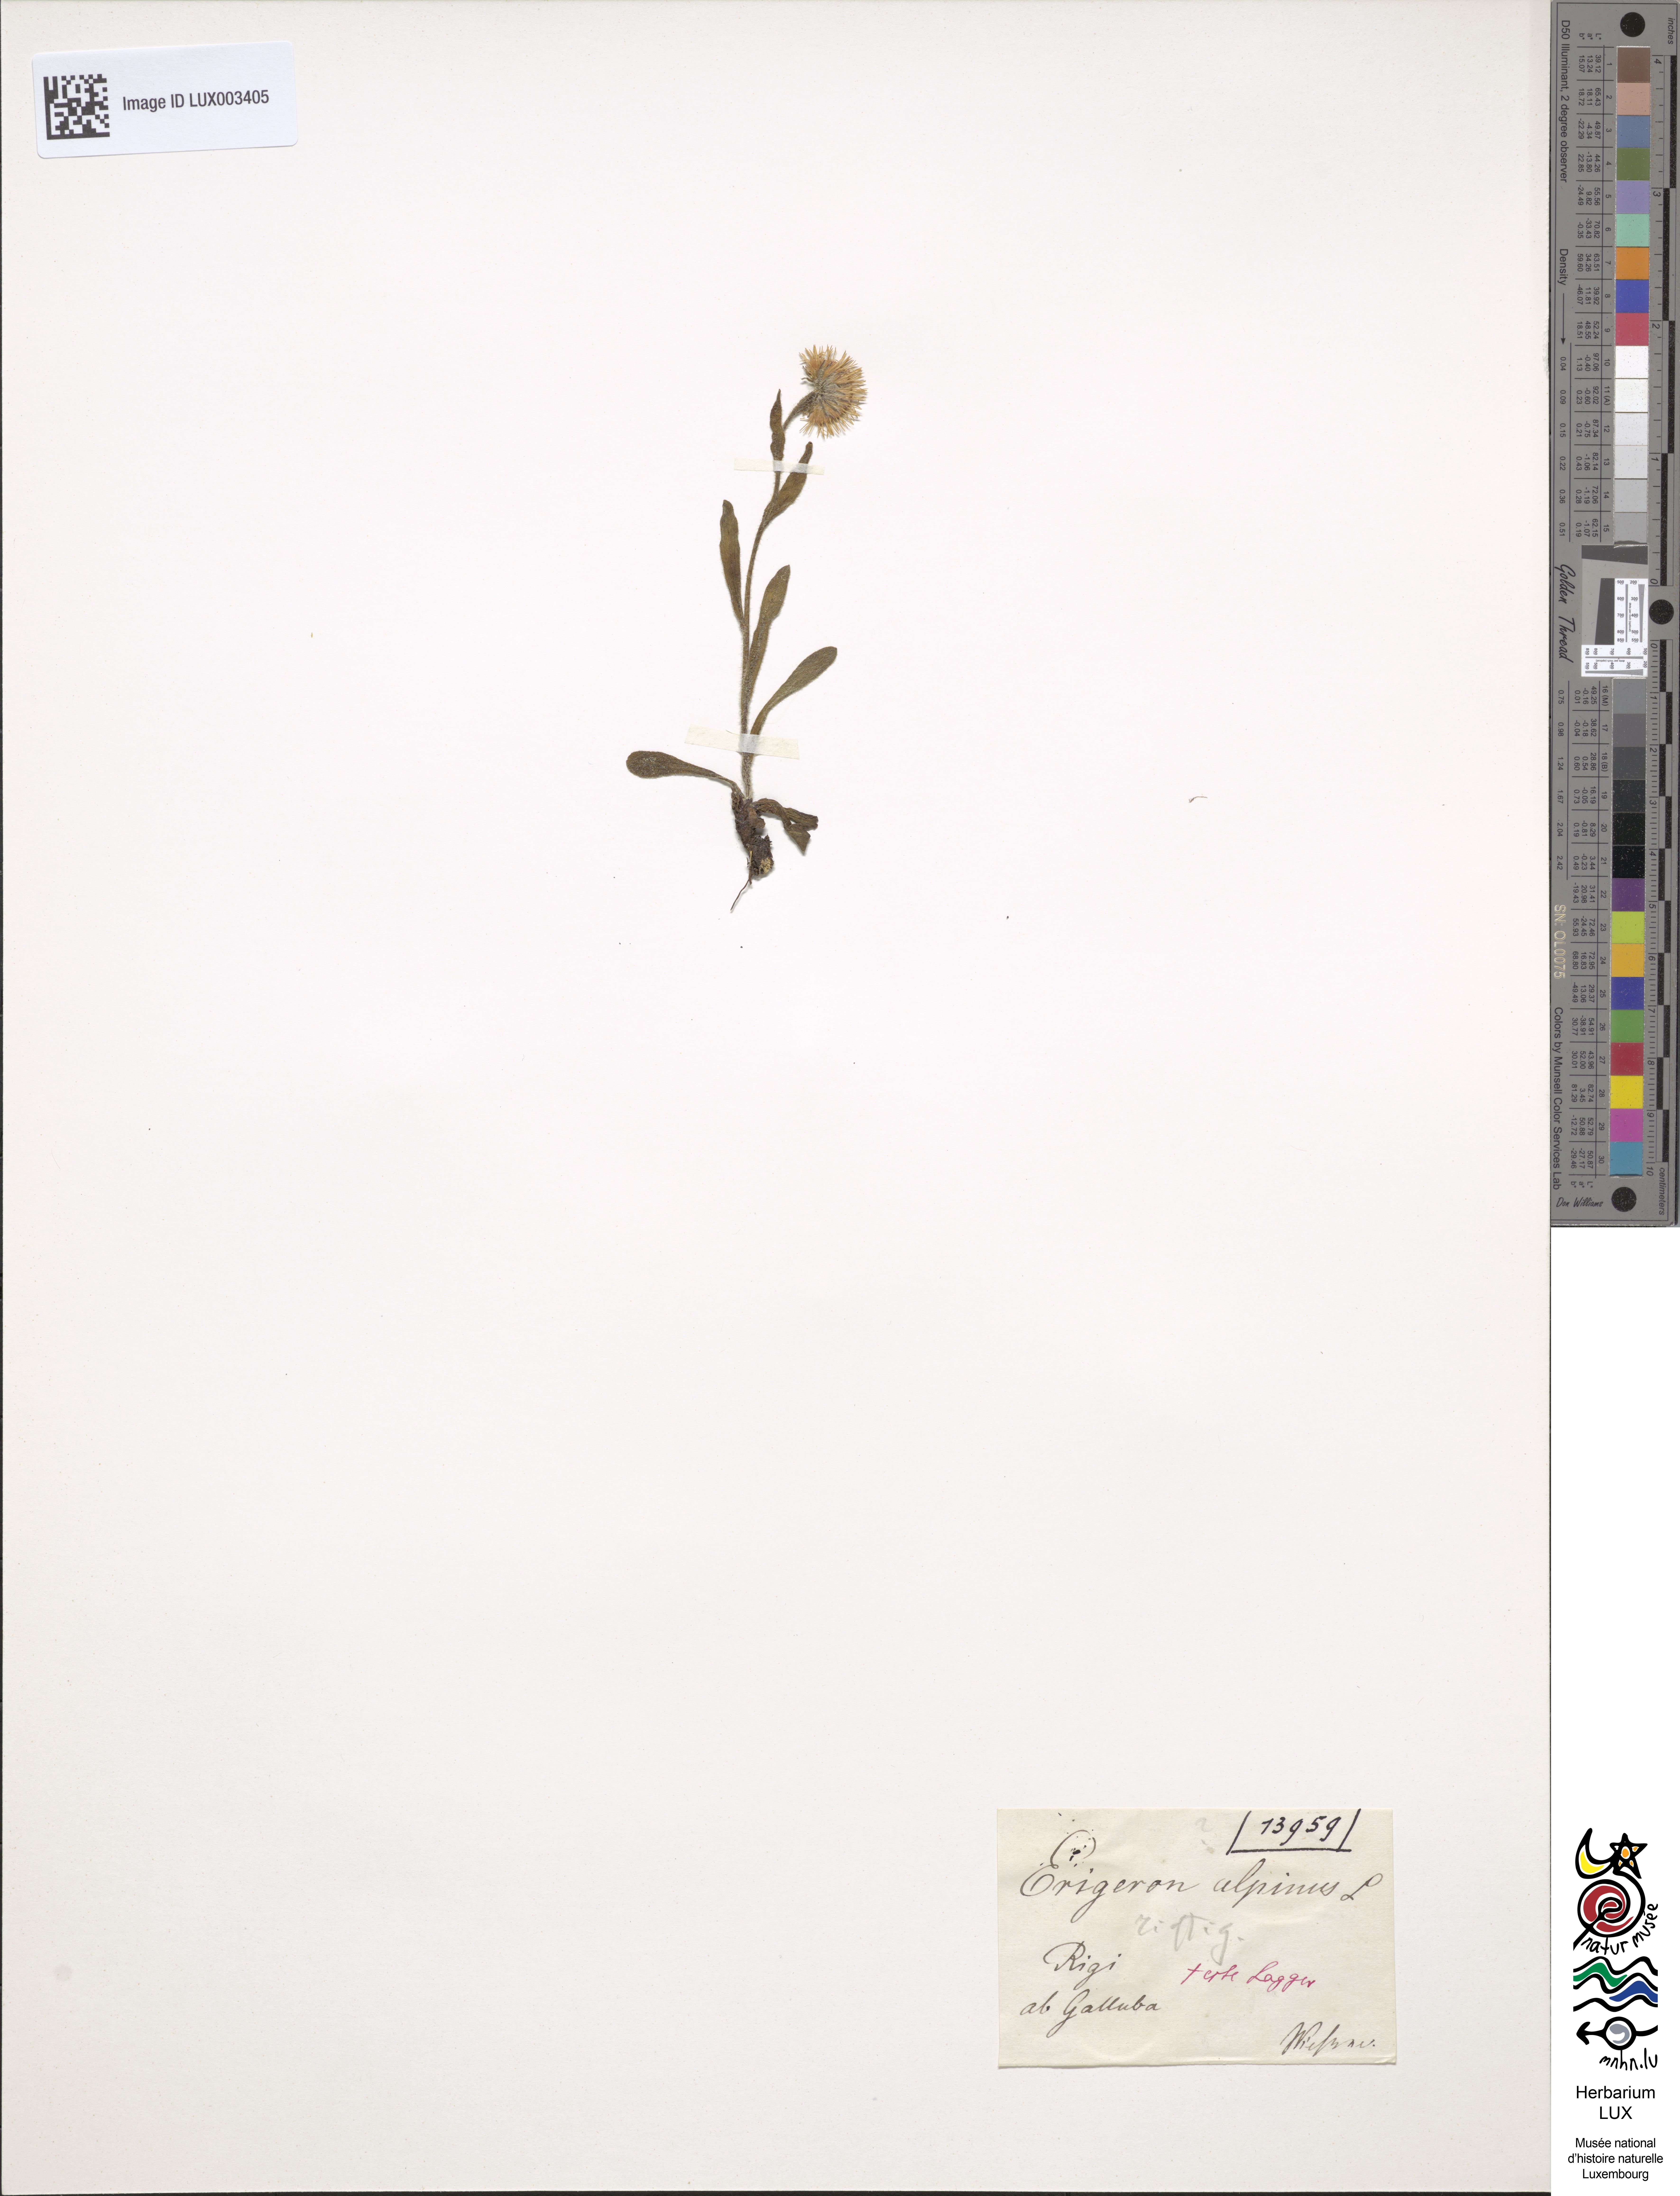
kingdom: Plantae
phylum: Tracheophyta
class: Magnoliopsida
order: Asterales
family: Asteraceae
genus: Erigeron
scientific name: Erigeron alpinus
